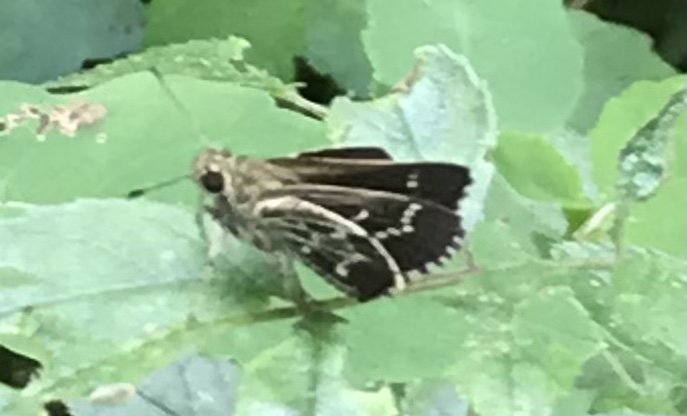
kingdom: Animalia
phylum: Arthropoda
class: Insecta
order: Lepidoptera
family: Hesperiidae
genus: Mastor
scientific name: Mastor aesculapius
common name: Lace-winged Roadside-Skipper
